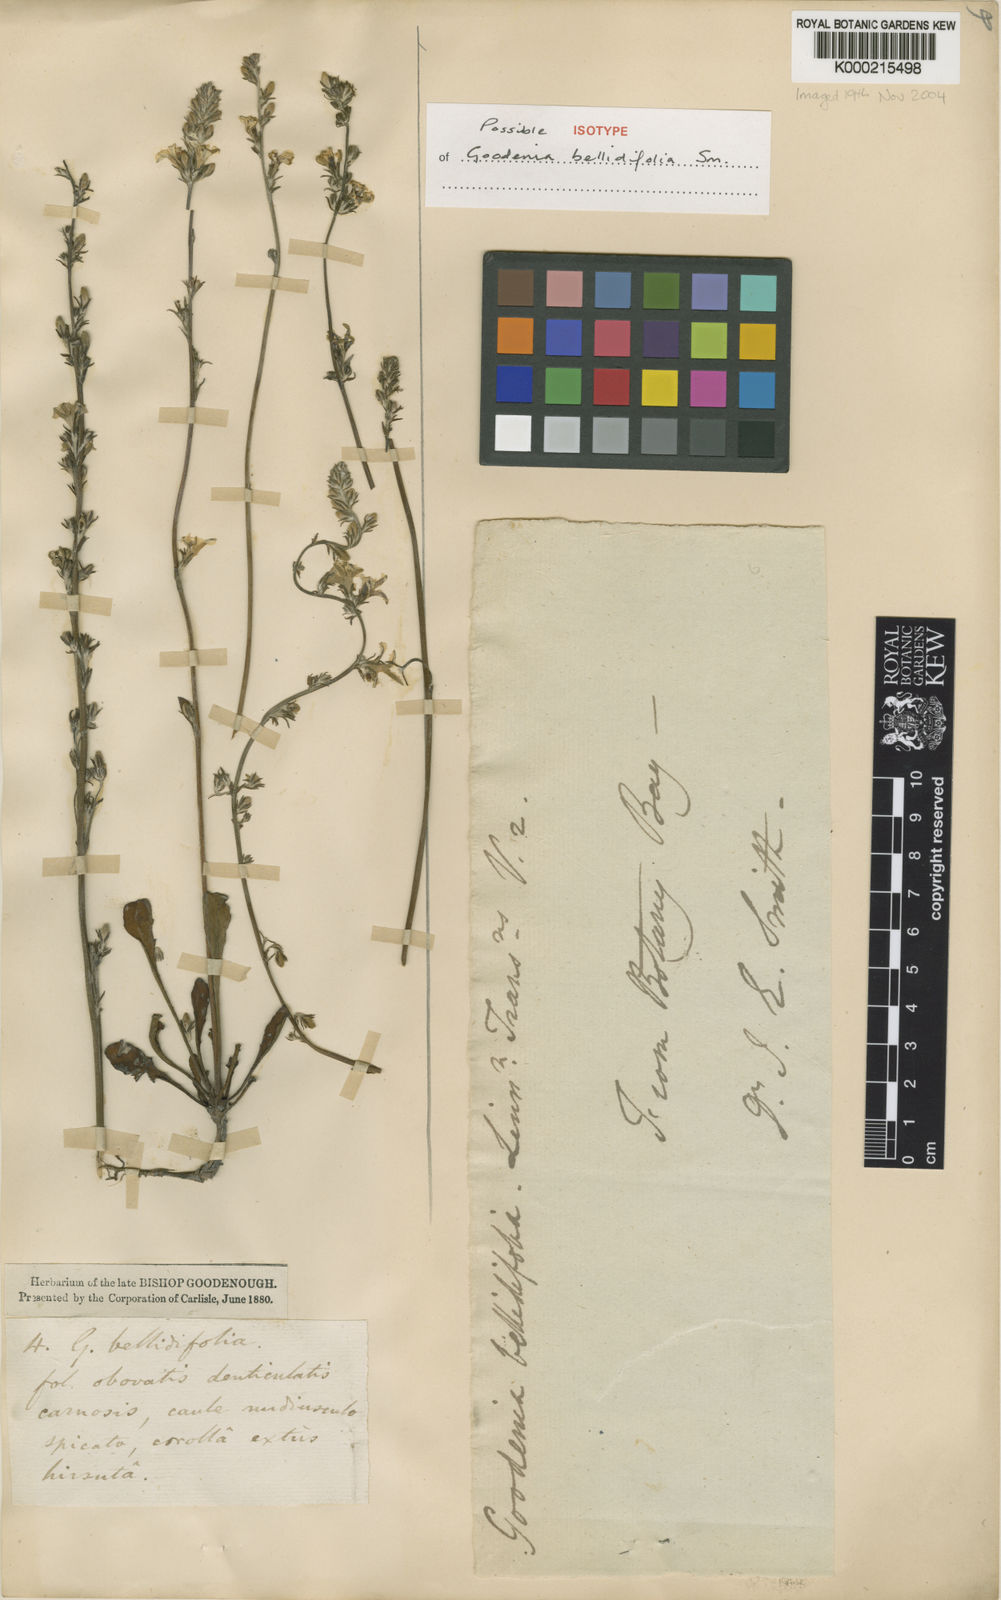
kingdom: Plantae
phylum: Tracheophyta
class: Magnoliopsida
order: Asterales
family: Goodeniaceae
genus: Goodenia
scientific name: Goodenia bellidifolia
